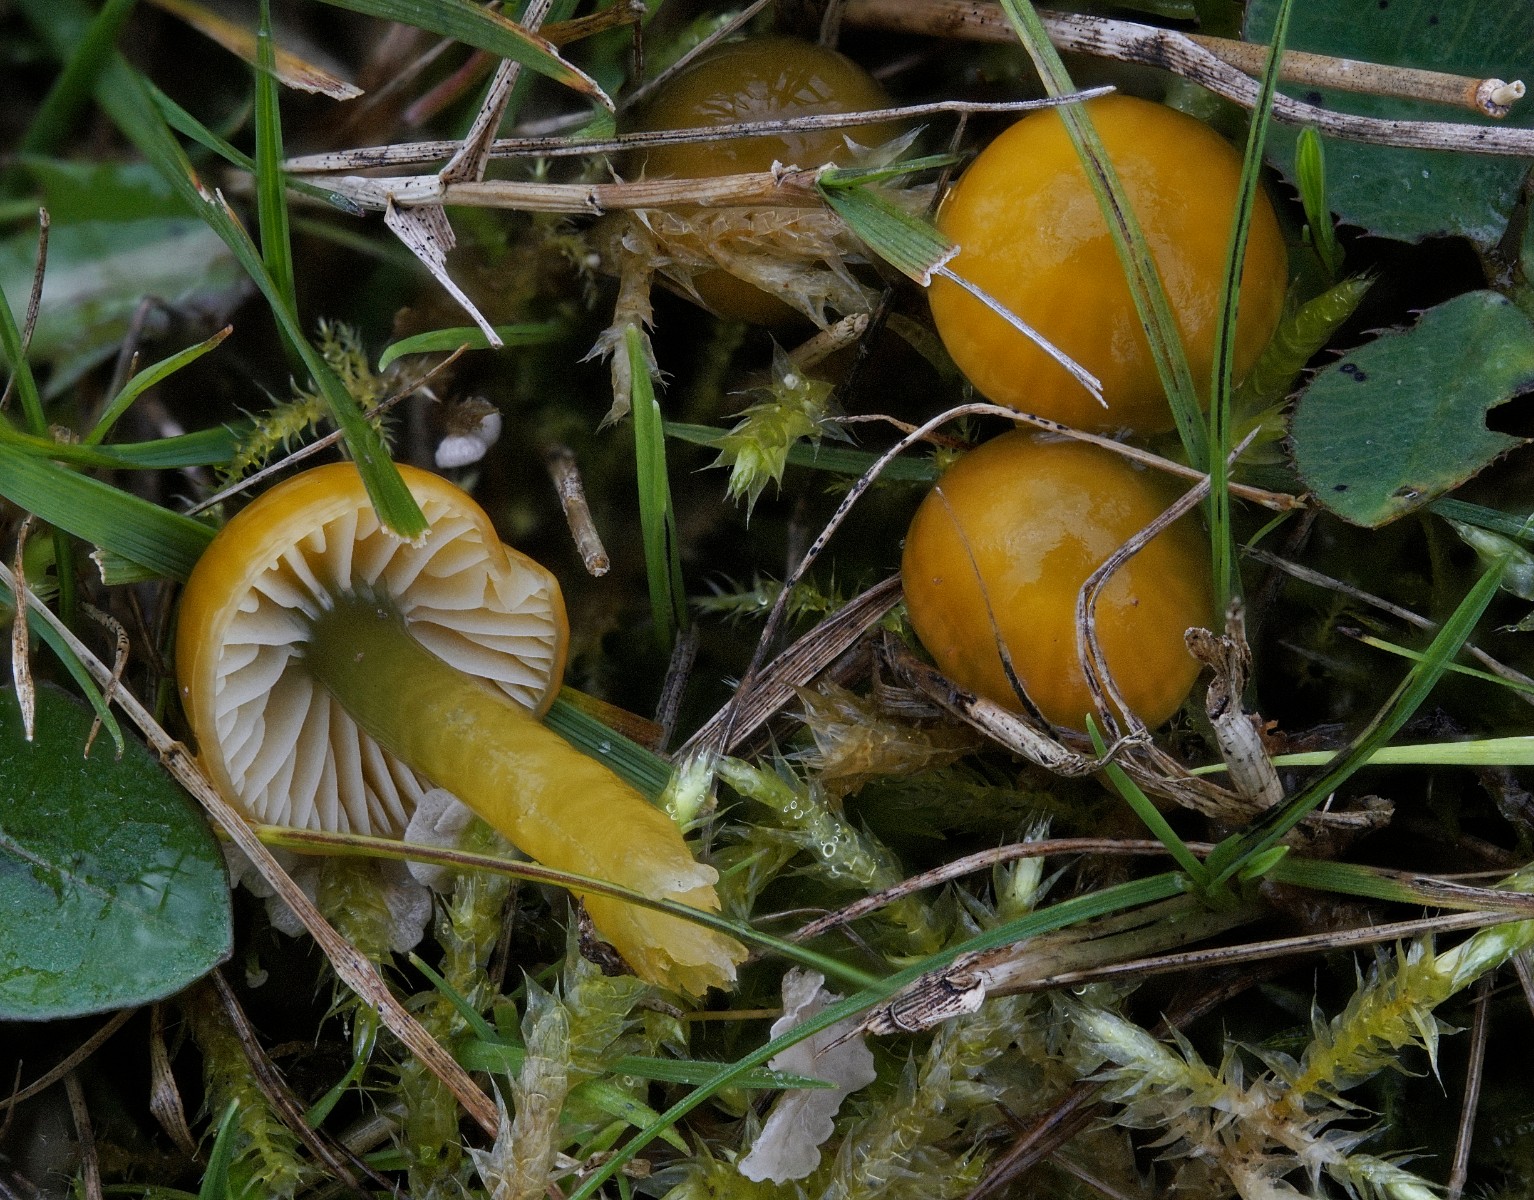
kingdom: Fungi
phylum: Basidiomycota
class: Agaricomycetes
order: Agaricales
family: Hygrophoraceae
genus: Gliophorus
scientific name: Gliophorus psittacinus
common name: papegøje-vokshat
